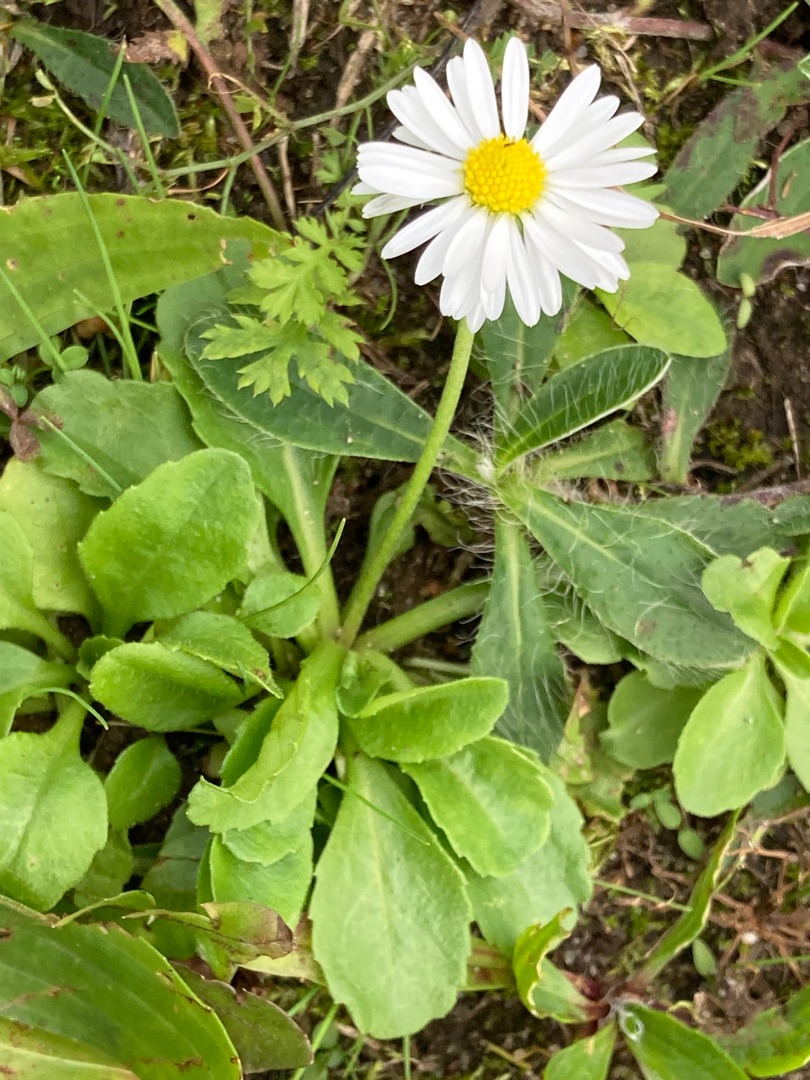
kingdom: Plantae
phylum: Tracheophyta
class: Magnoliopsida
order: Asterales
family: Asteraceae
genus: Bellis
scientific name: Bellis perennis
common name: Tusindfryd
